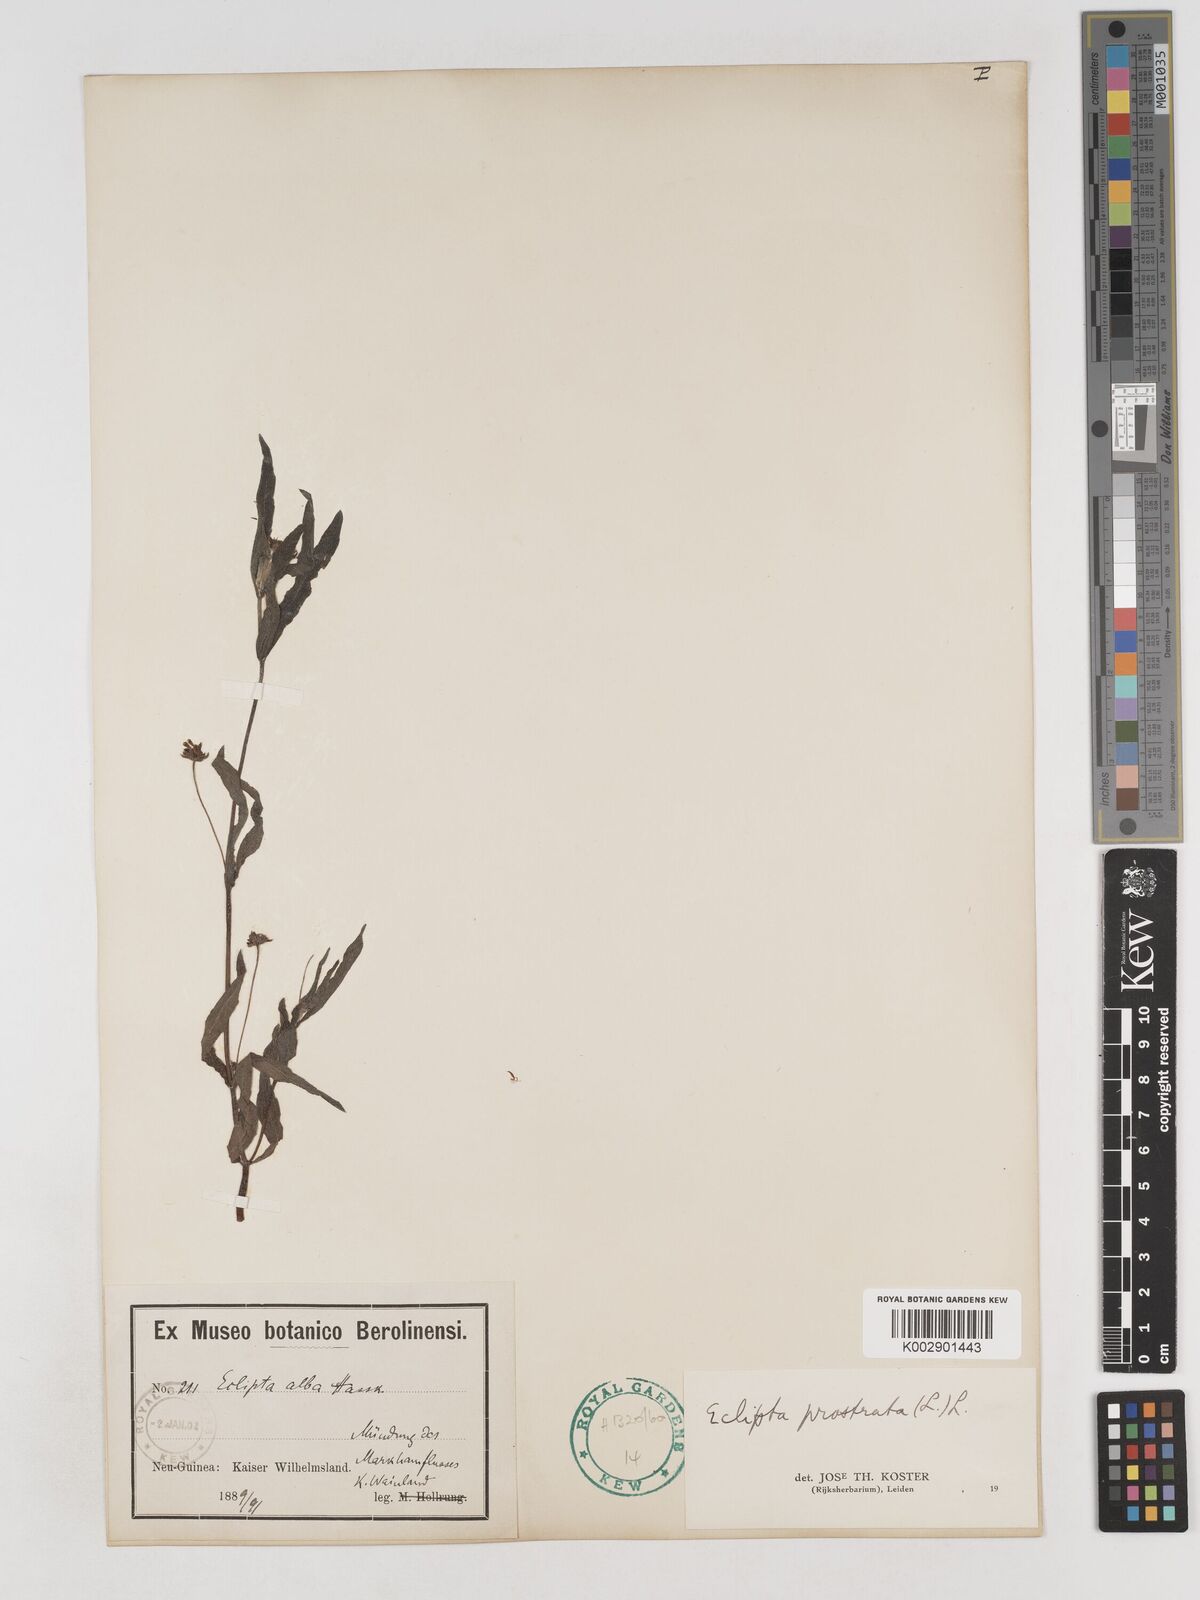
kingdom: Plantae
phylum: Tracheophyta
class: Magnoliopsida
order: Asterales
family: Asteraceae
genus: Eclipta
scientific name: Eclipta prostrata
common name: False daisy
